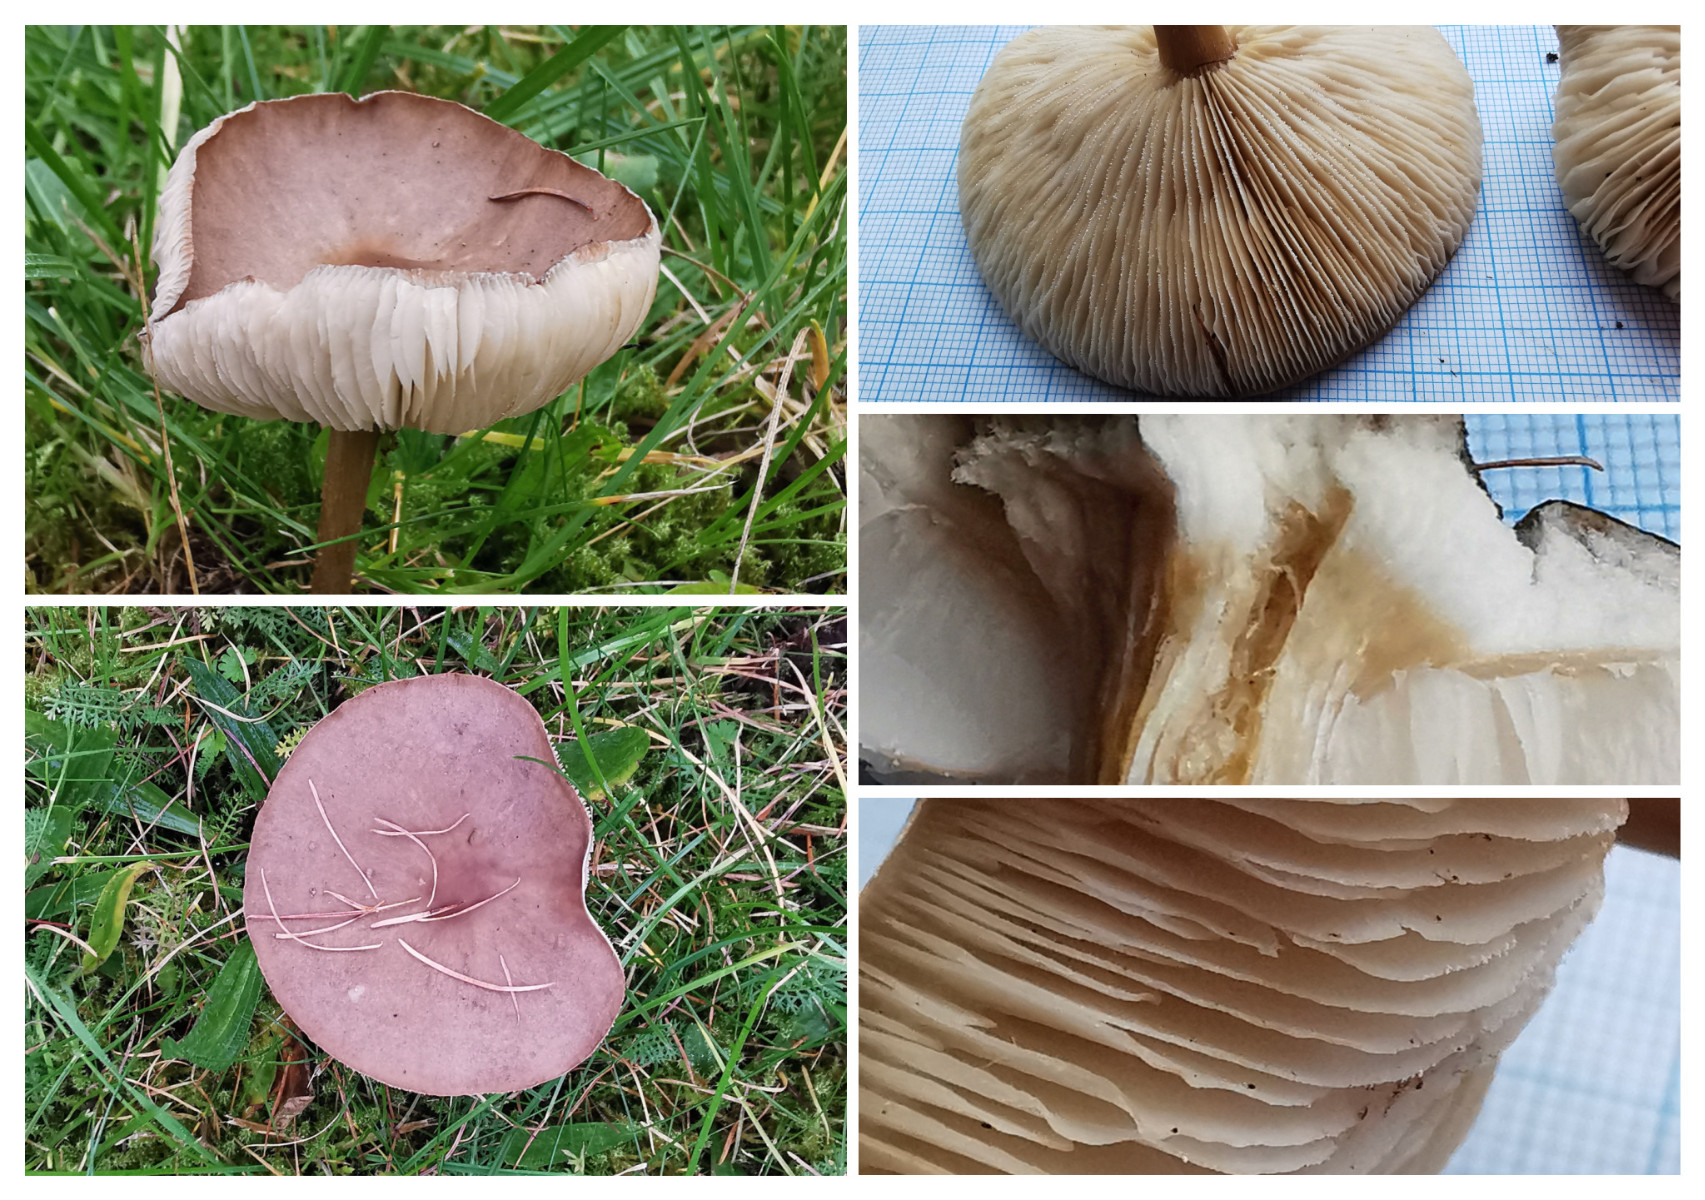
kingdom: Fungi
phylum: Basidiomycota
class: Agaricomycetes
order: Agaricales
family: Tricholomataceae
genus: Melanoleuca
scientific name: Melanoleuca
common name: munkehat
